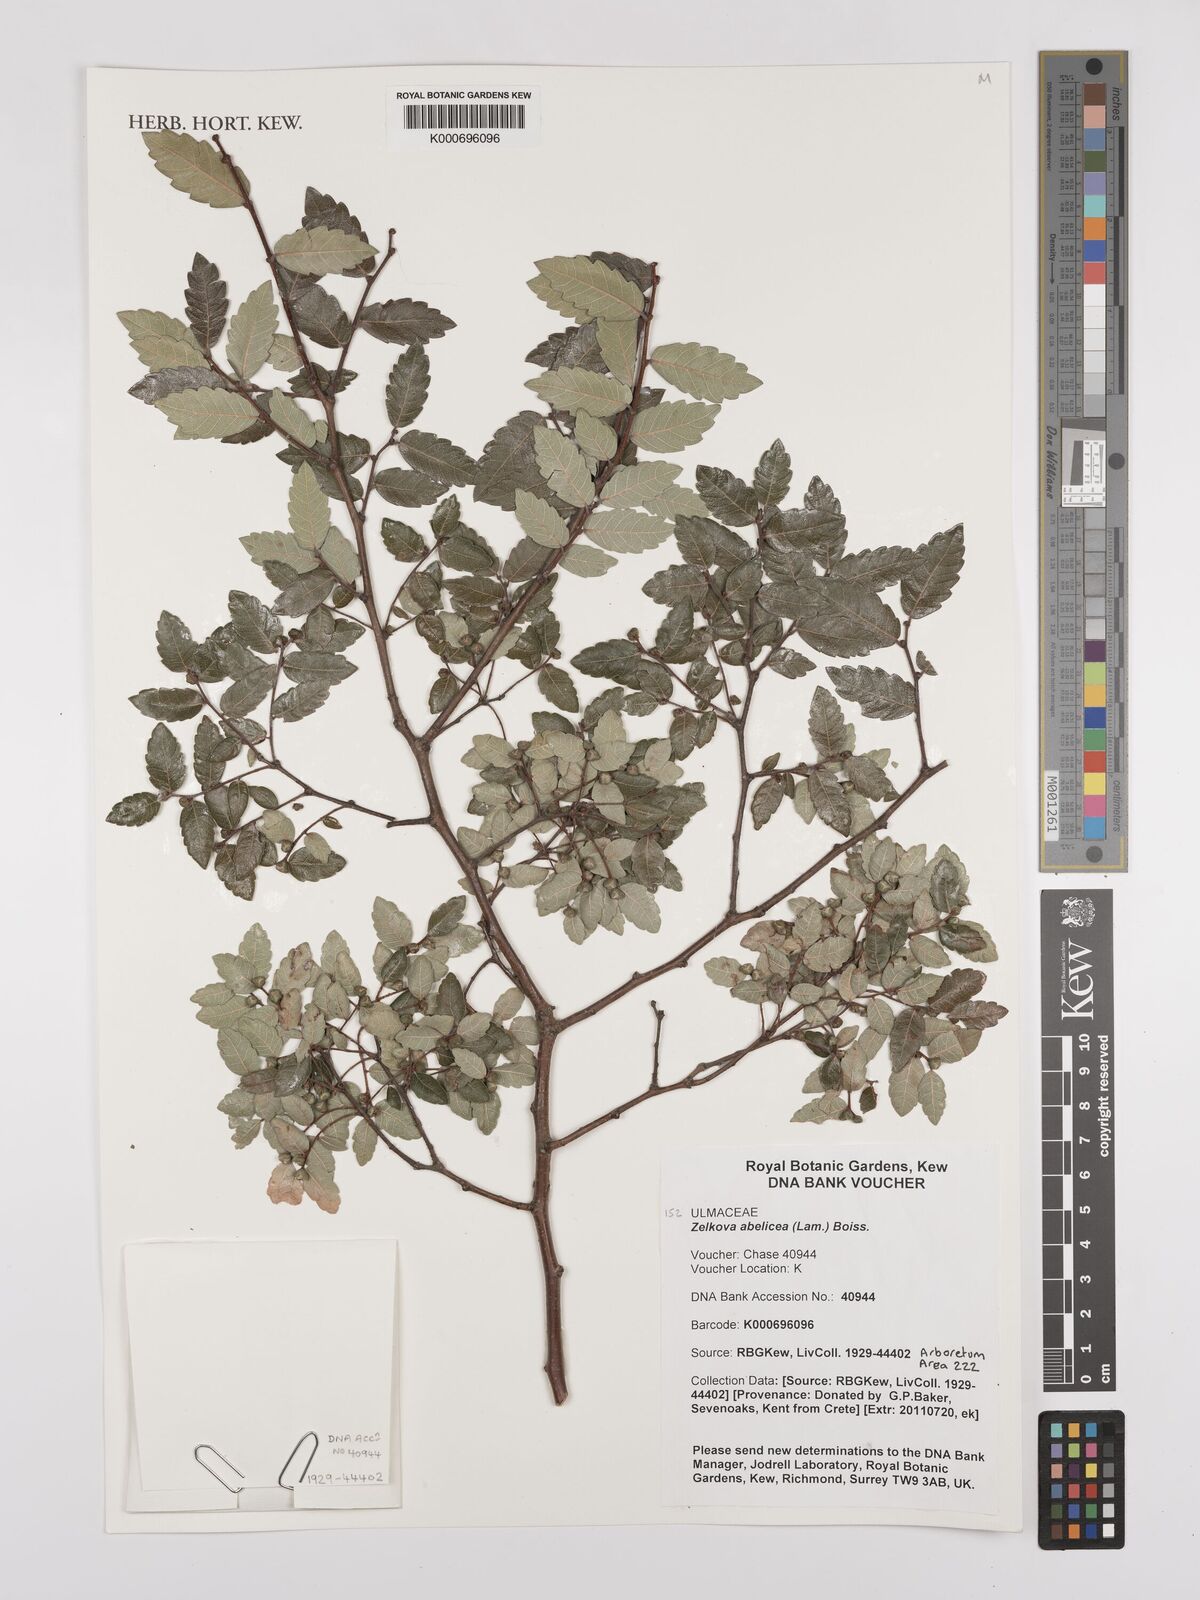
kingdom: Plantae
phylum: Tracheophyta
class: Magnoliopsida
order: Rosales
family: Ulmaceae
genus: Zelkova
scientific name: Zelkova abelicea
